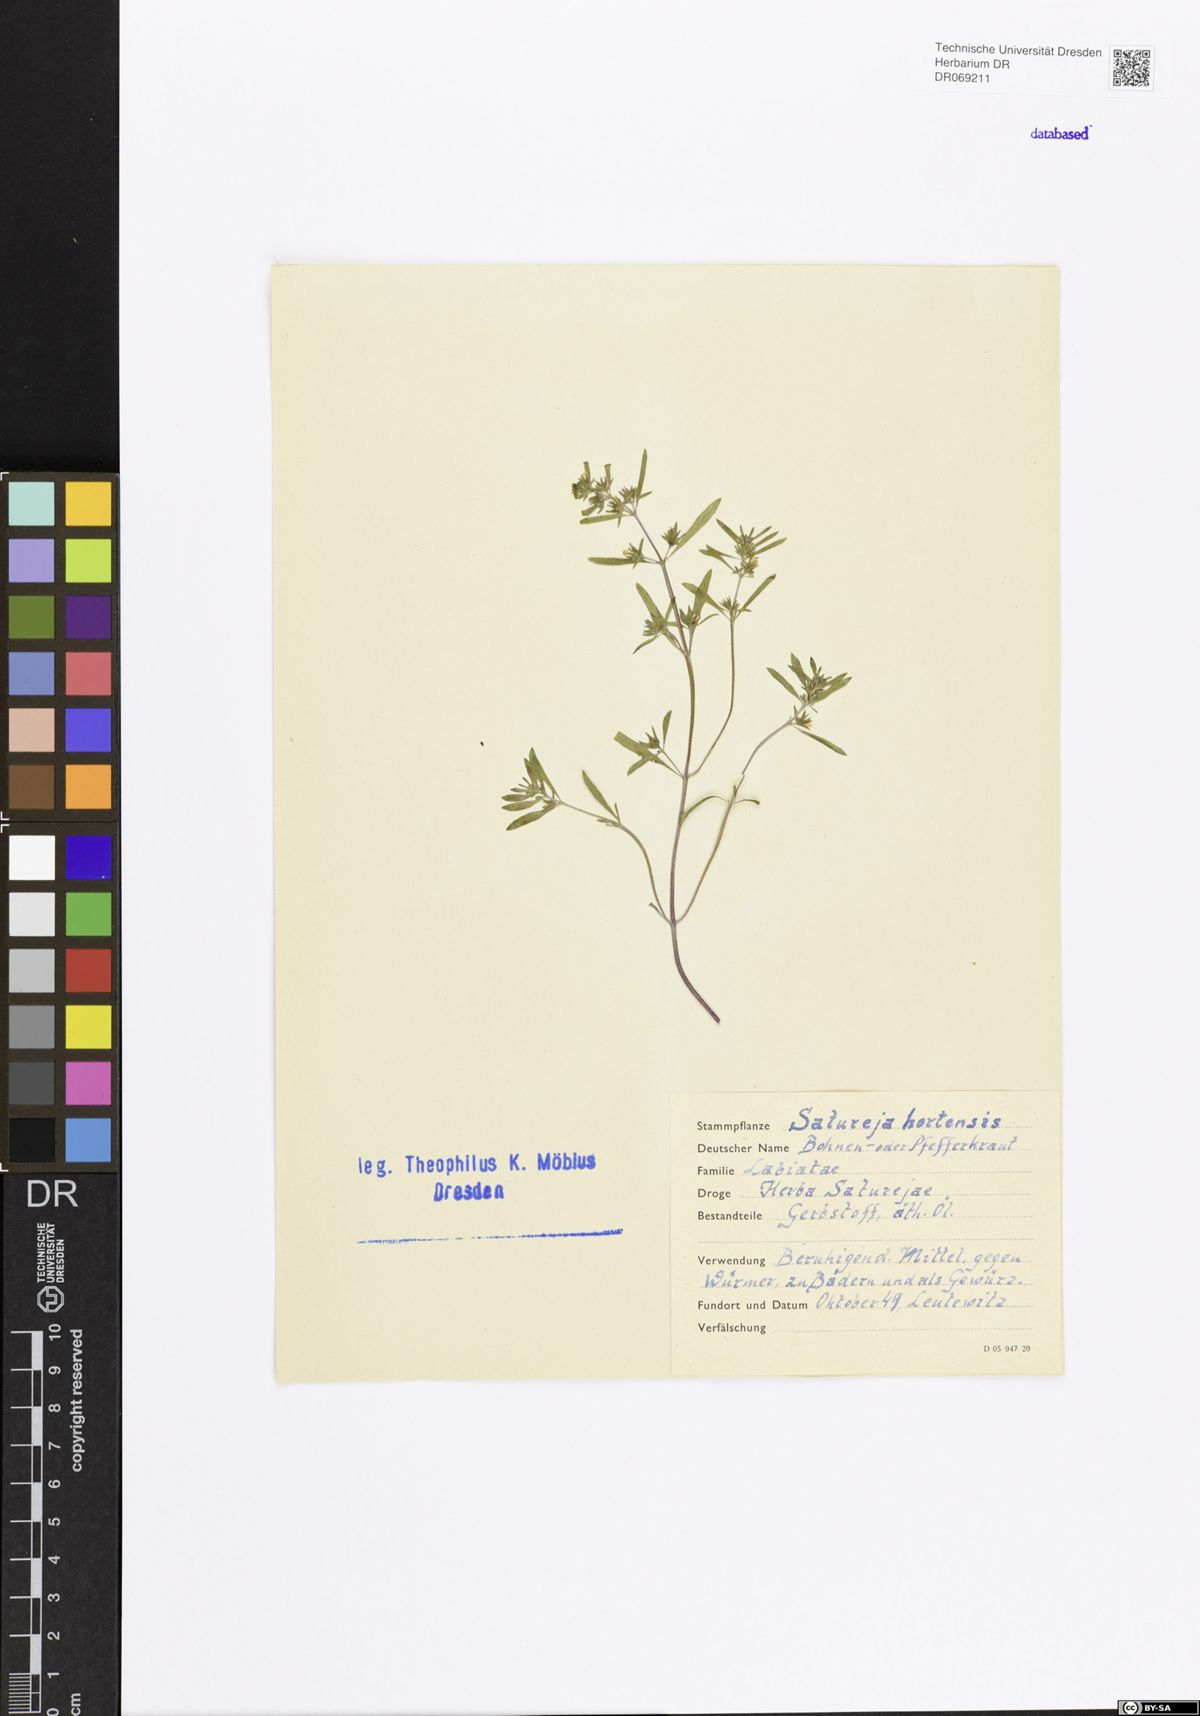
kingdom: Plantae
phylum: Tracheophyta
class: Magnoliopsida
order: Lamiales
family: Lamiaceae
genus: Satureja
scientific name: Satureja hortensis
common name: Summer savory
